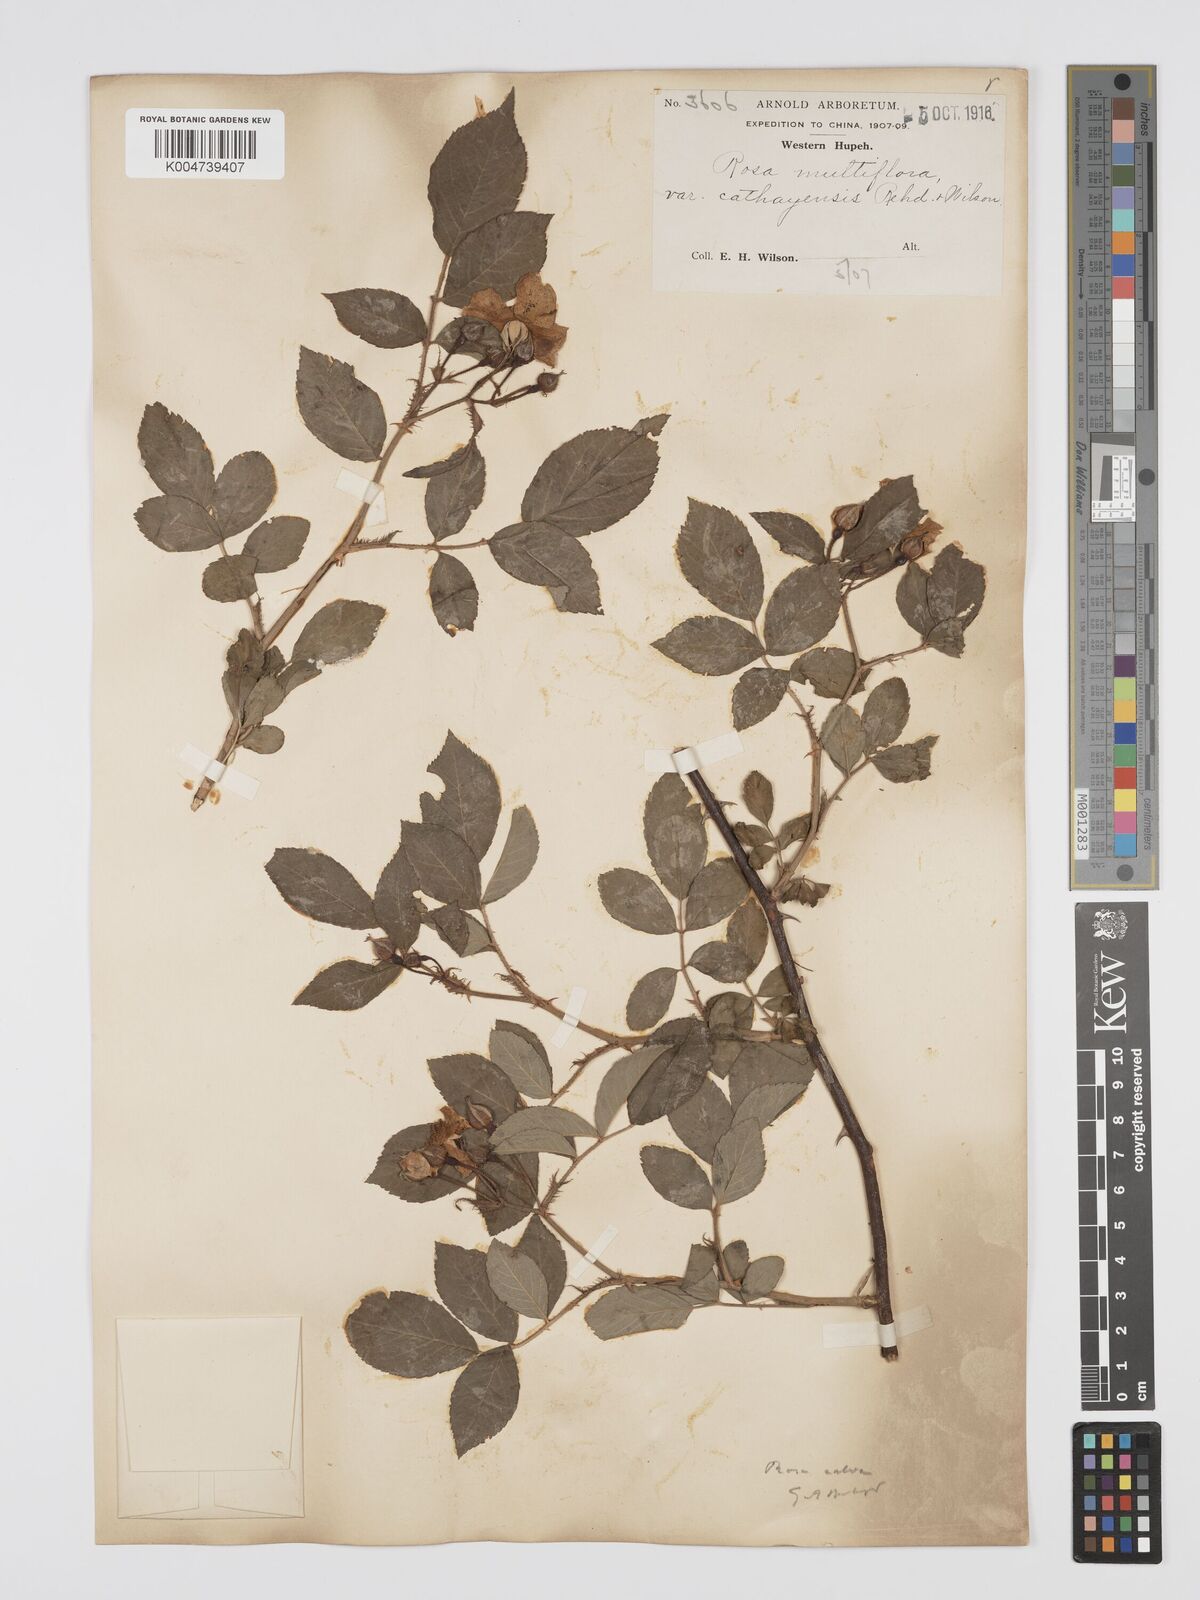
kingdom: Plantae
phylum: Tracheophyta
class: Magnoliopsida
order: Rosales
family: Rosaceae
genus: Rosa
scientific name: Rosa
